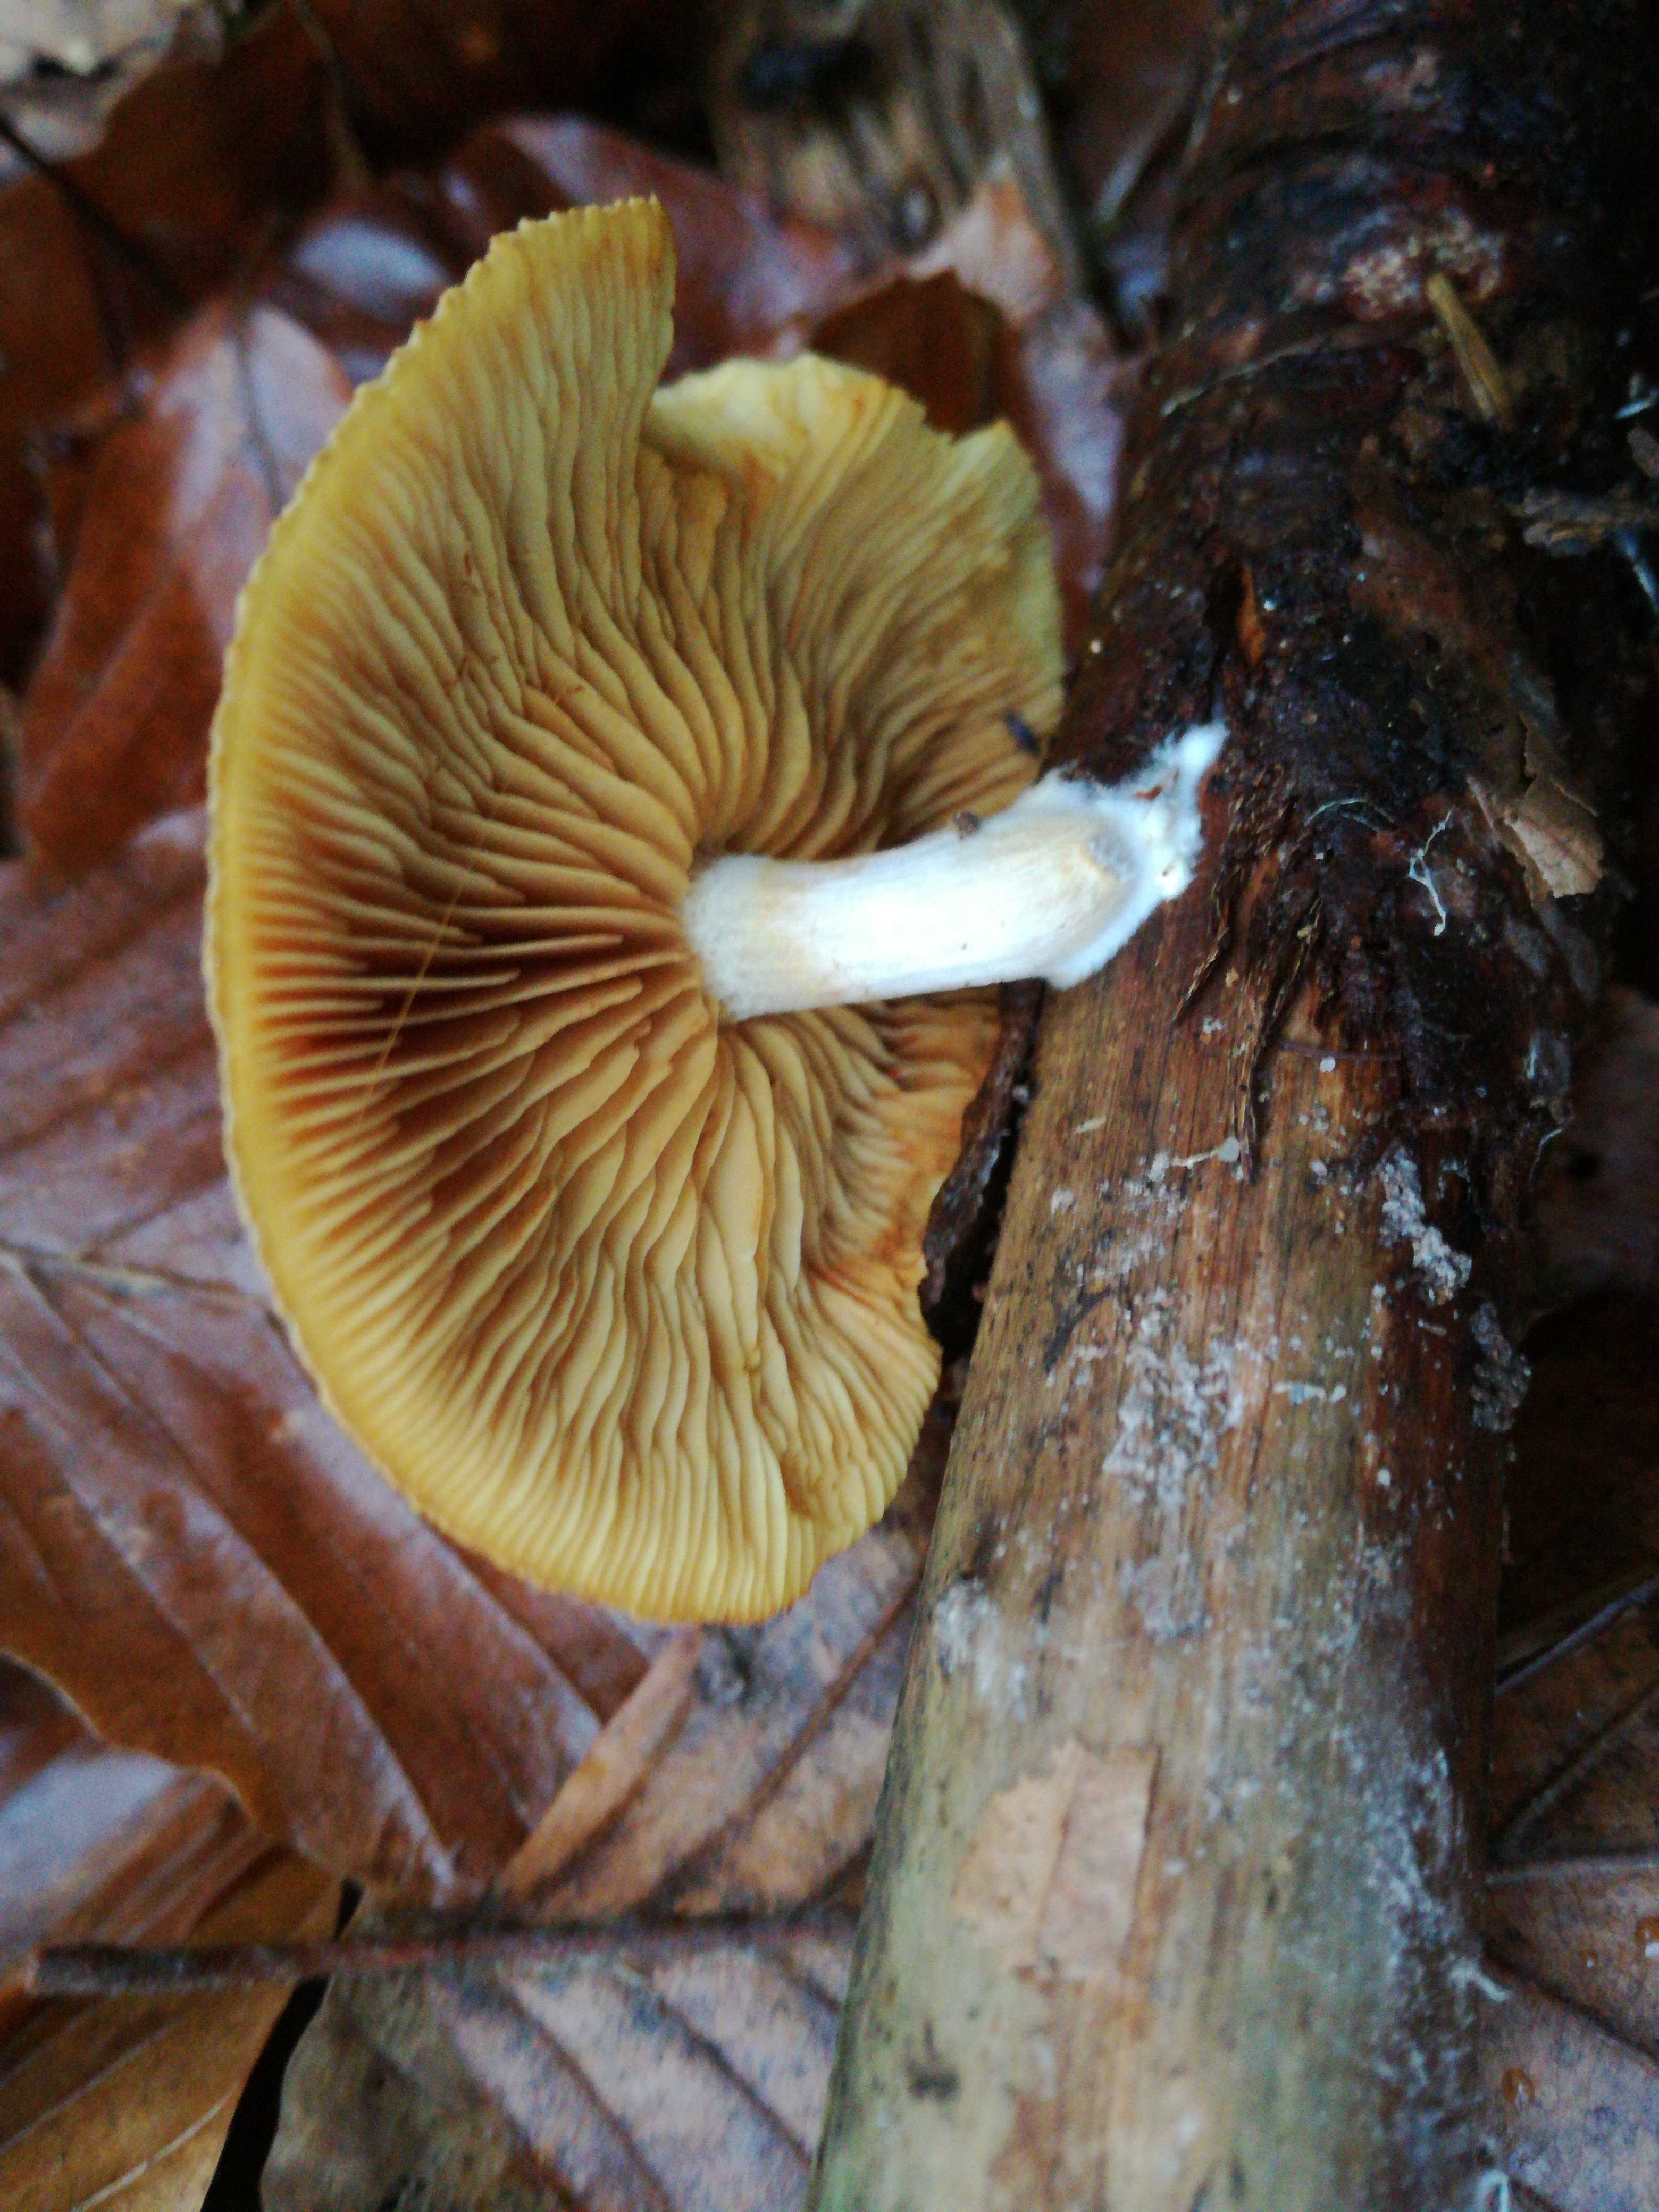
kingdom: Fungi
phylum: Basidiomycota
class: Agaricomycetes
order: Agaricales
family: Hymenogastraceae
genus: Gymnopilus
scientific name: Gymnopilus penetrans
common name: plettet flammehat
